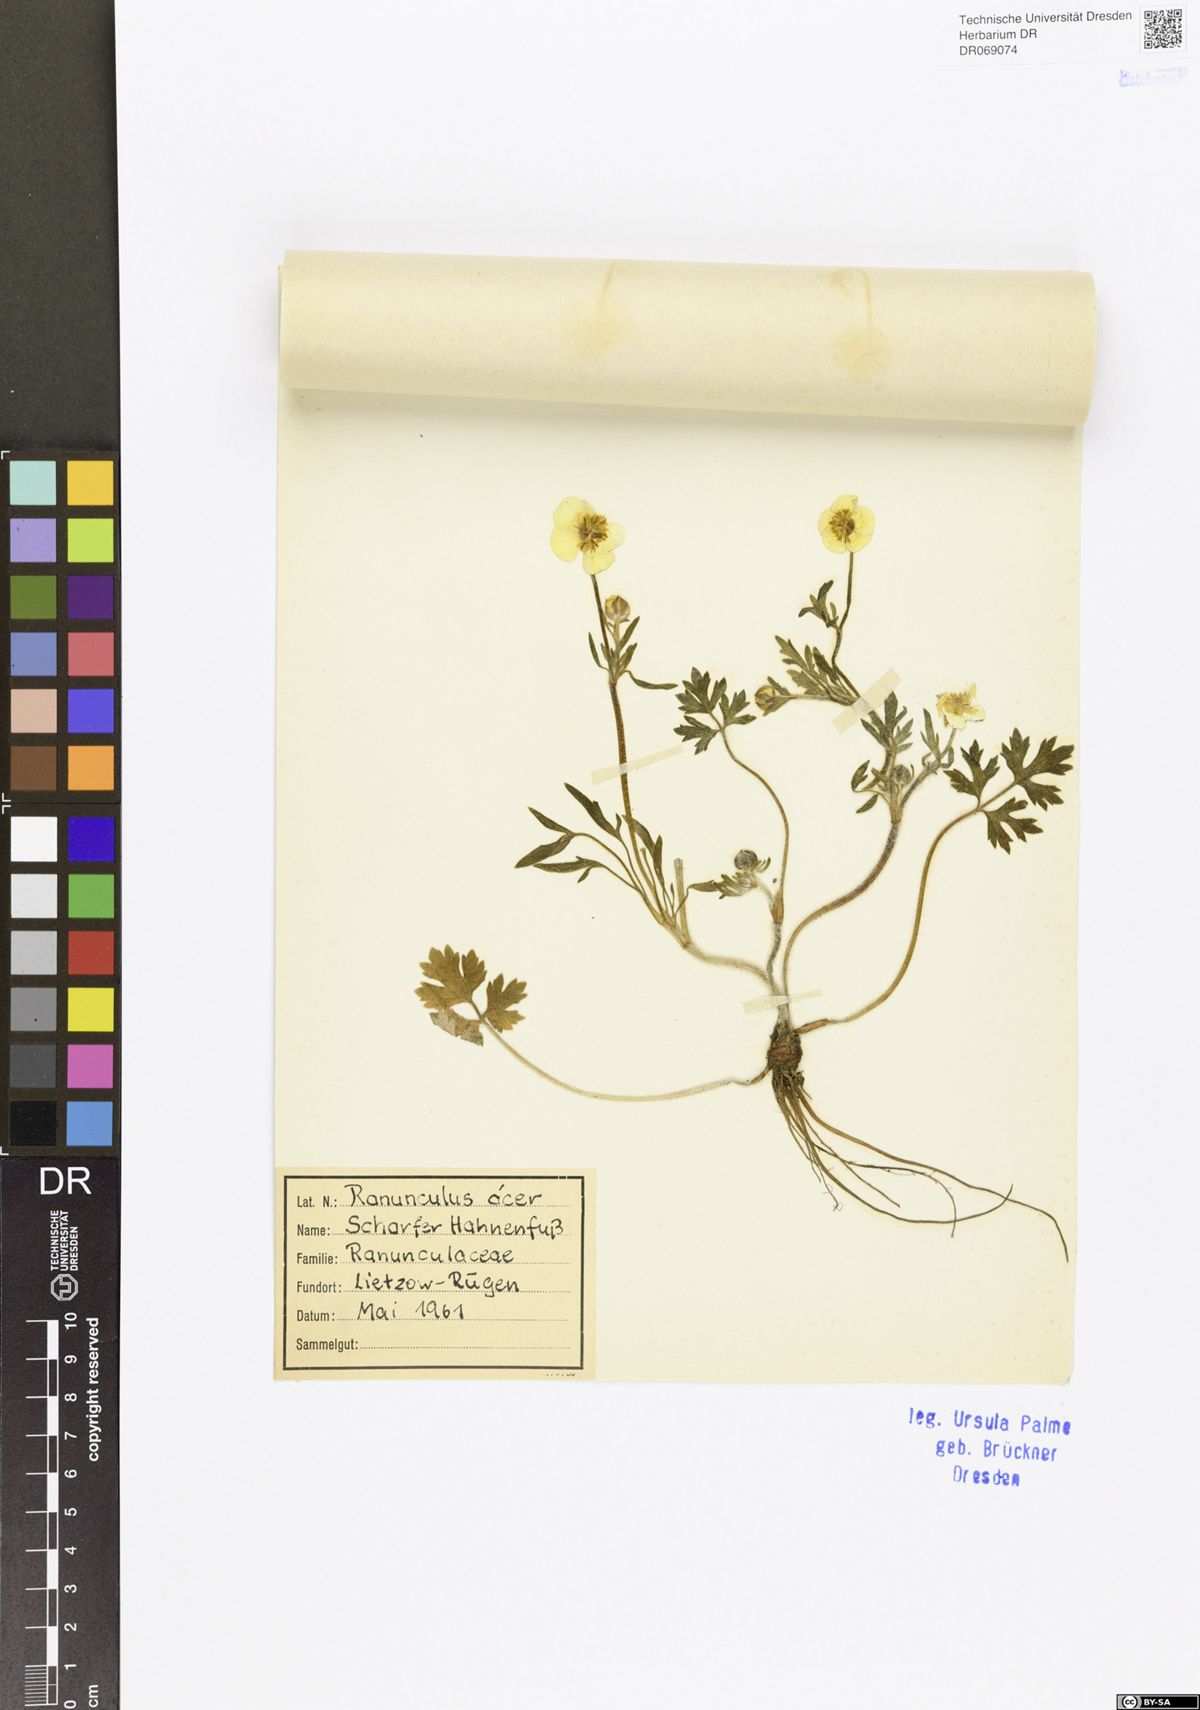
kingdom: Plantae
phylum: Tracheophyta
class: Magnoliopsida
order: Ranunculales
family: Ranunculaceae
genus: Ranunculus
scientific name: Ranunculus
